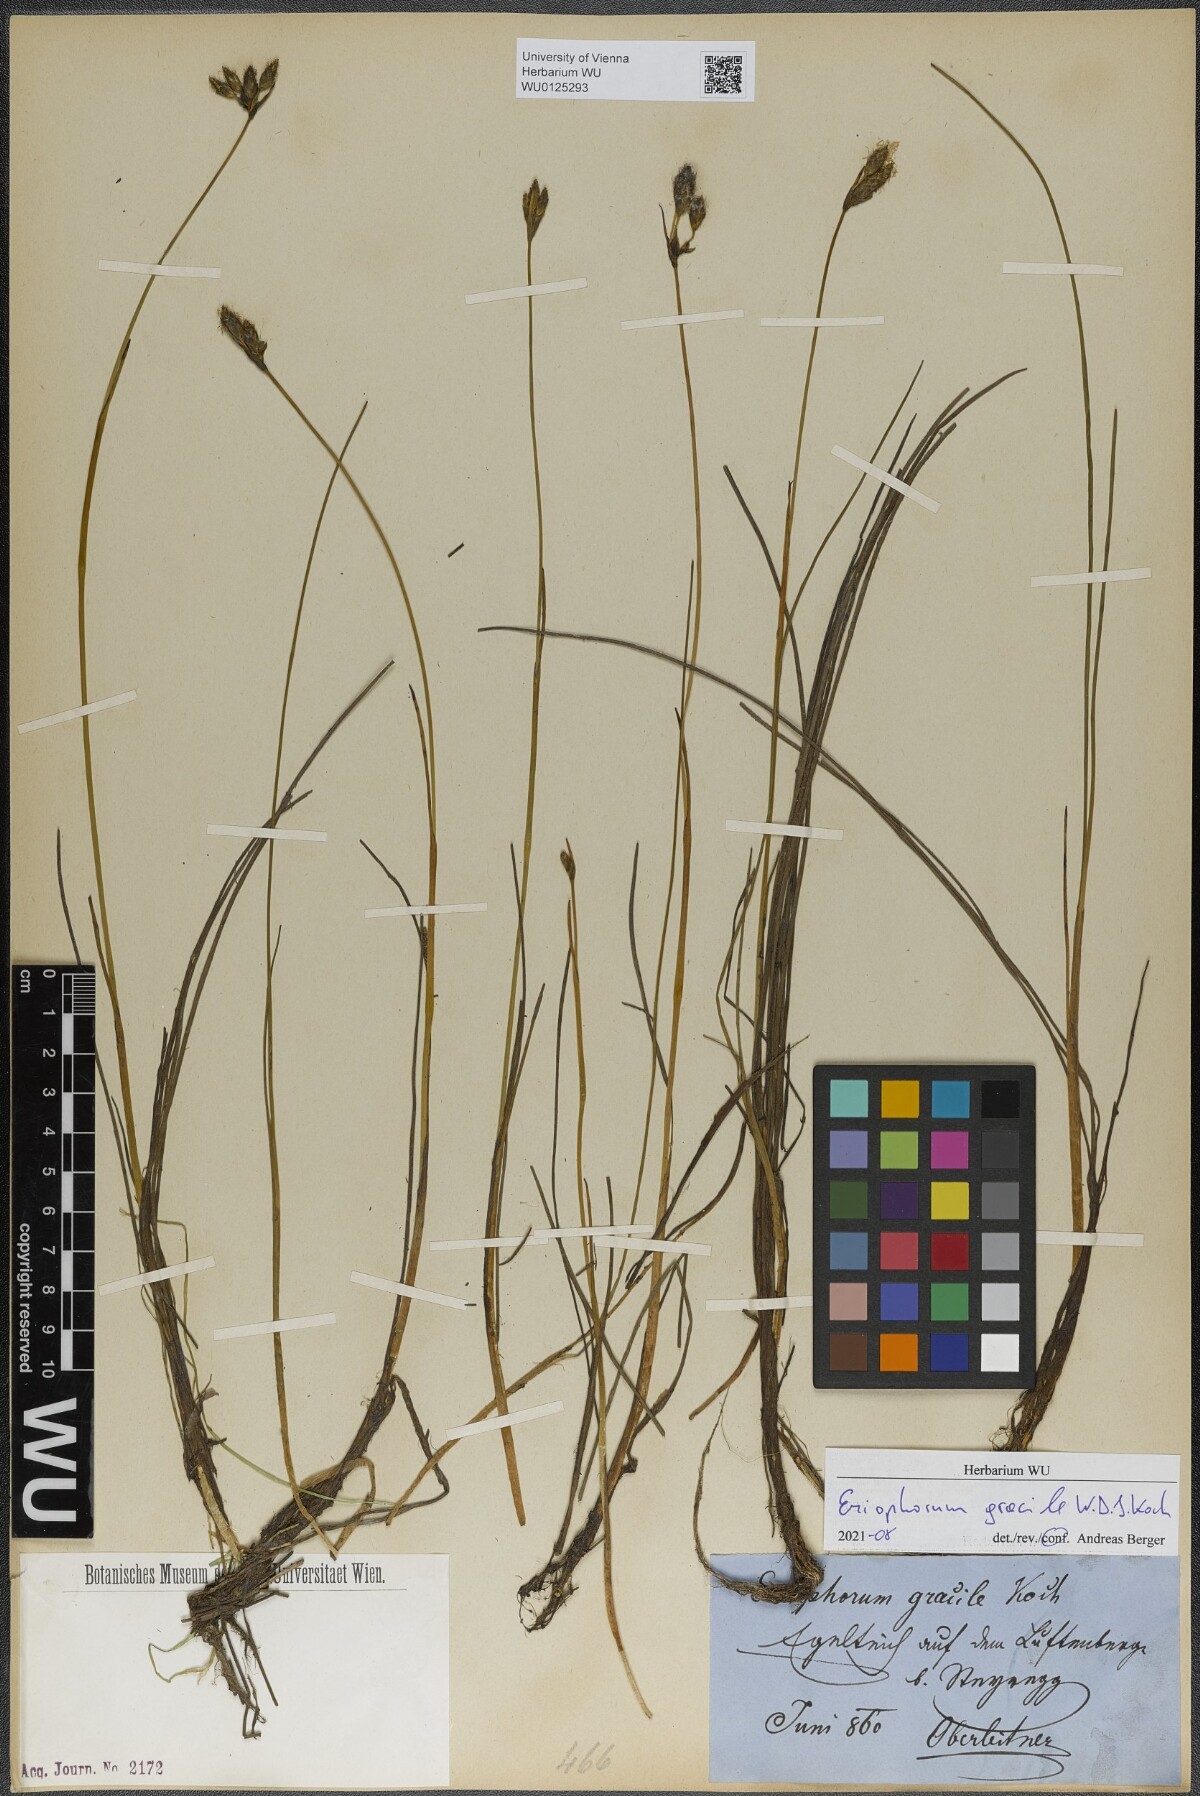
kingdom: Plantae
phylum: Tracheophyta
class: Liliopsida
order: Poales
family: Cyperaceae
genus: Eriophorum
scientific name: Eriophorum gracile
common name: Slender cottongrass
